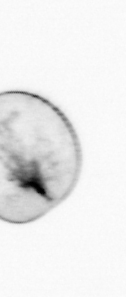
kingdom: Chromista
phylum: Myzozoa
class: Dinophyceae
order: Noctilucales
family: Noctilucaceae
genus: Noctiluca
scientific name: Noctiluca scintillans
